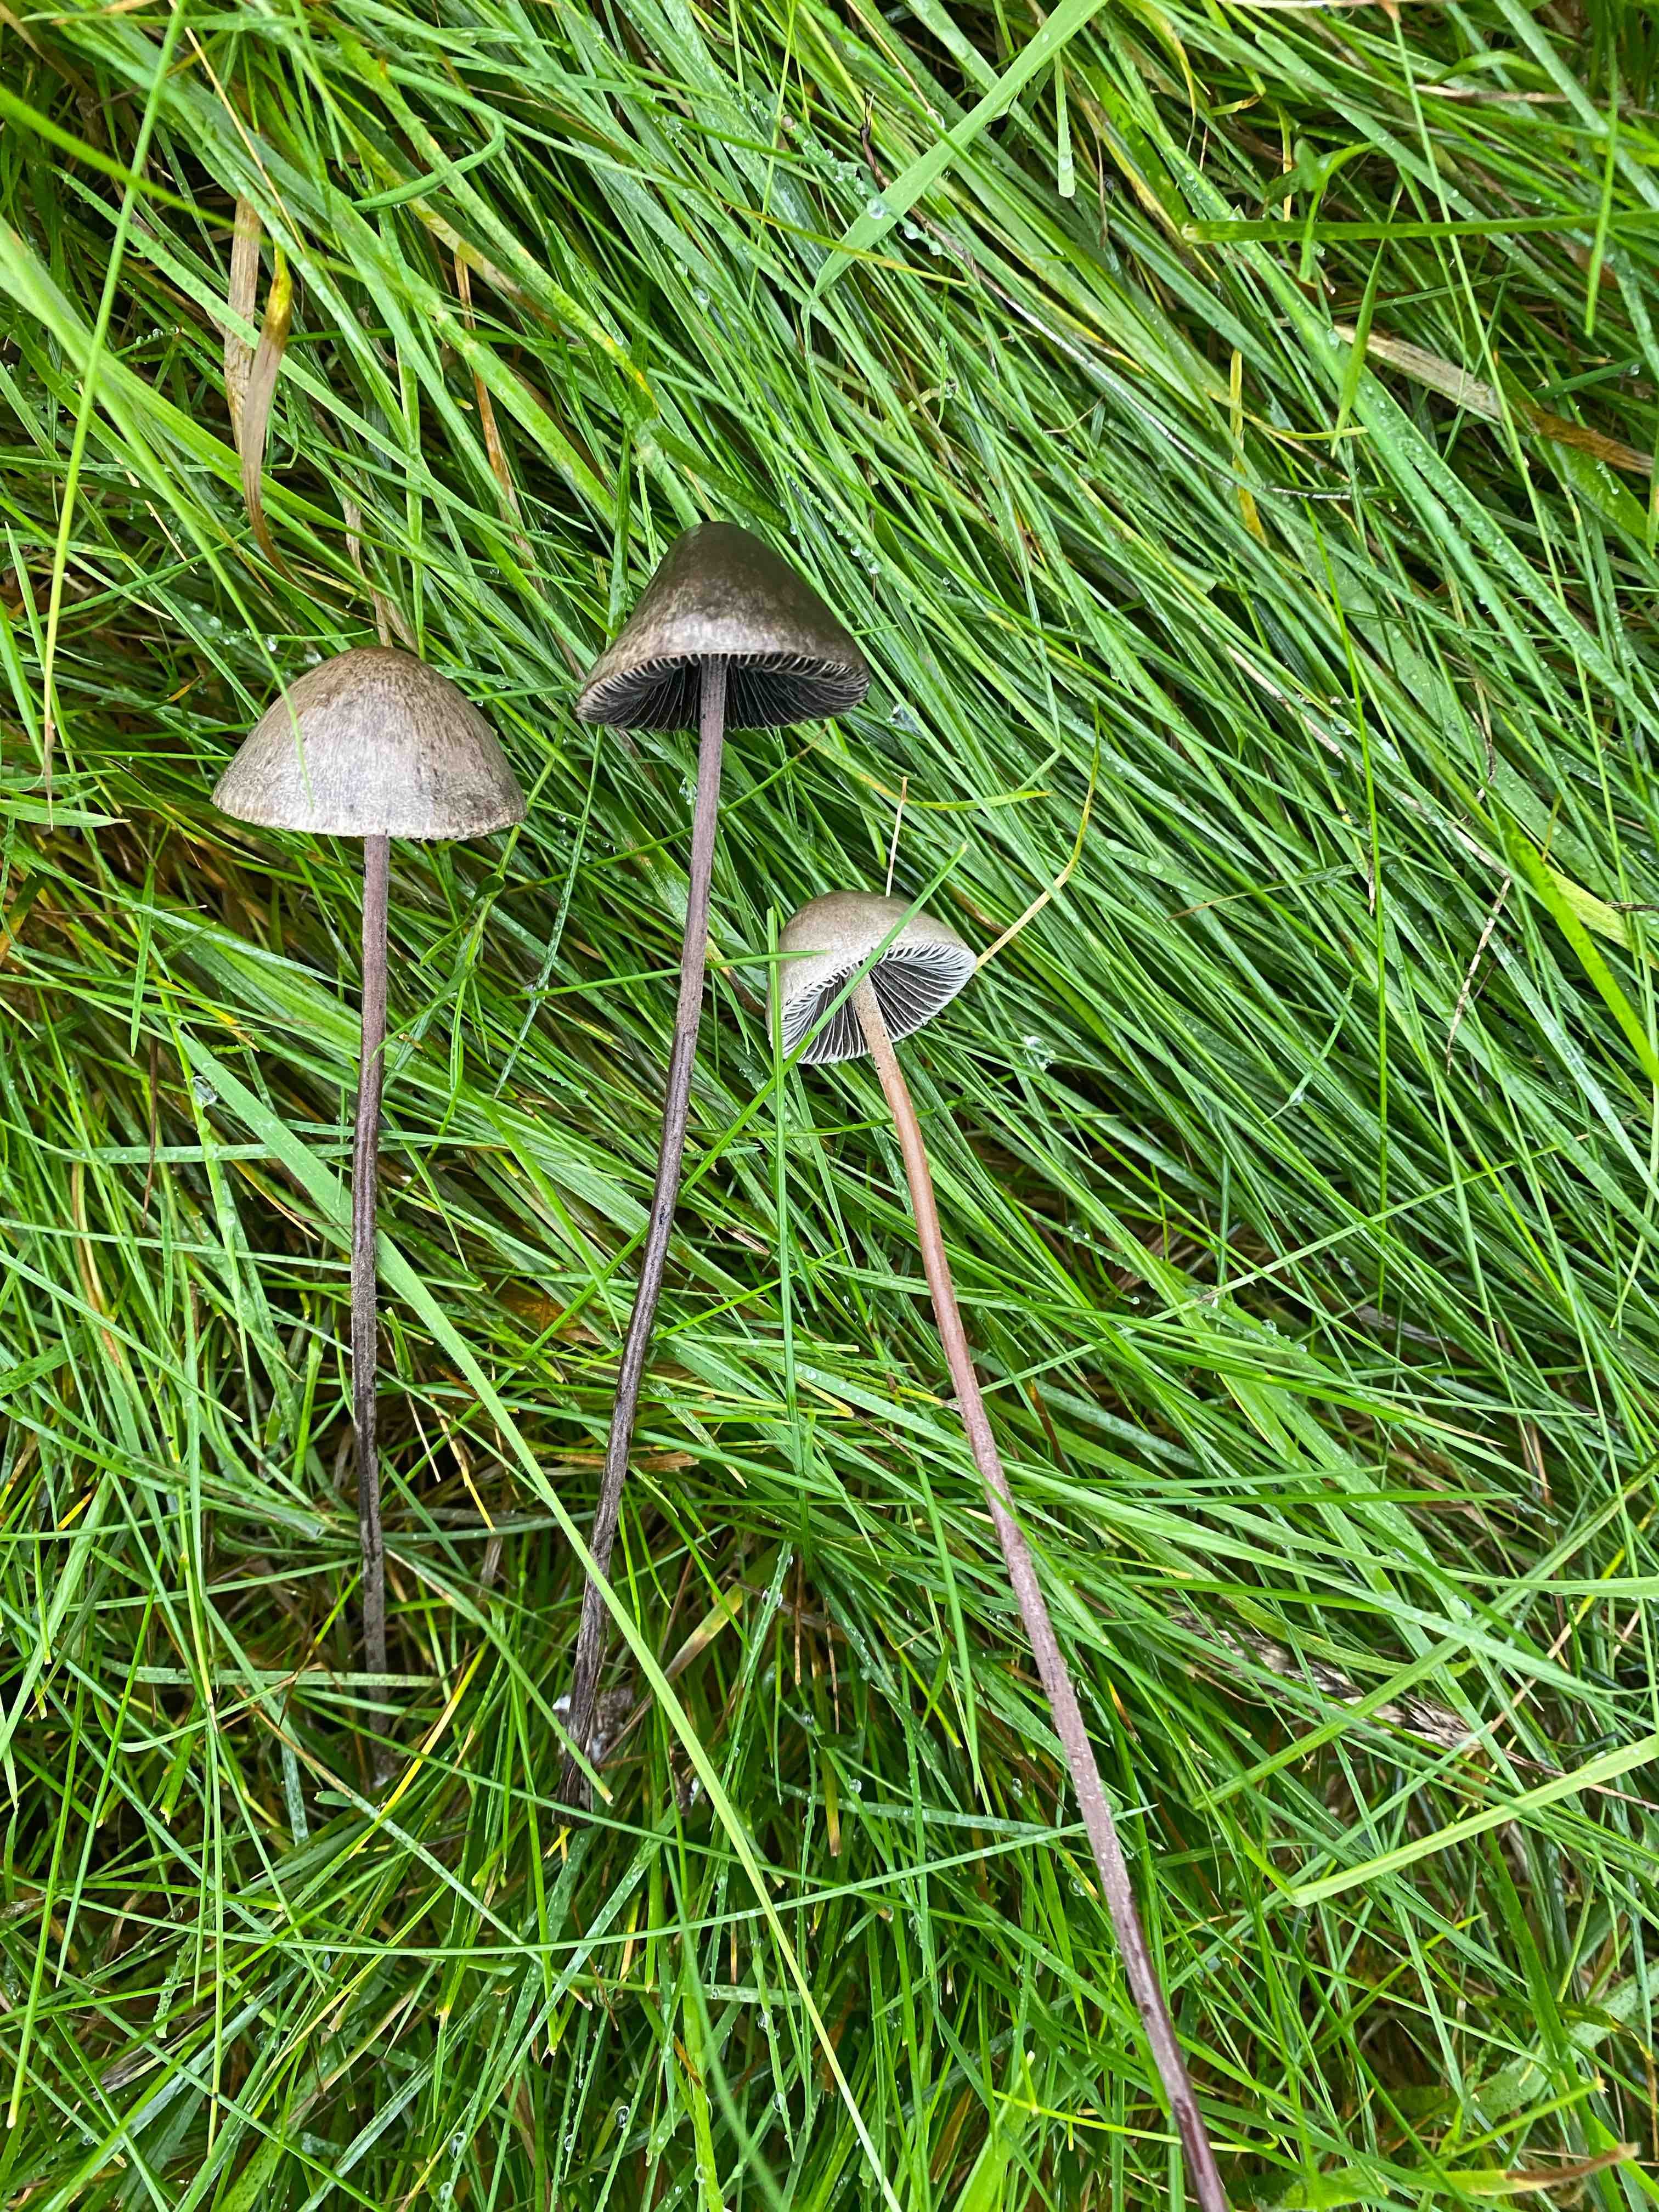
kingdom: Fungi
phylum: Basidiomycota
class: Agaricomycetes
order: Agaricales
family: Bolbitiaceae
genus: Panaeolus
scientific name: Panaeolus acuminatus
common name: høj glanshat
